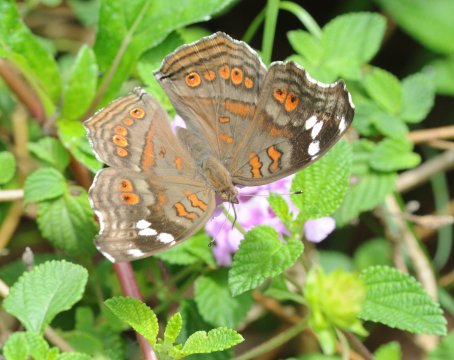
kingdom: Animalia
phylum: Arthropoda
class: Insecta
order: Lepidoptera
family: Nymphalidae
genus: Junonia
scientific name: Junonia natalica
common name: Natal Pansy
